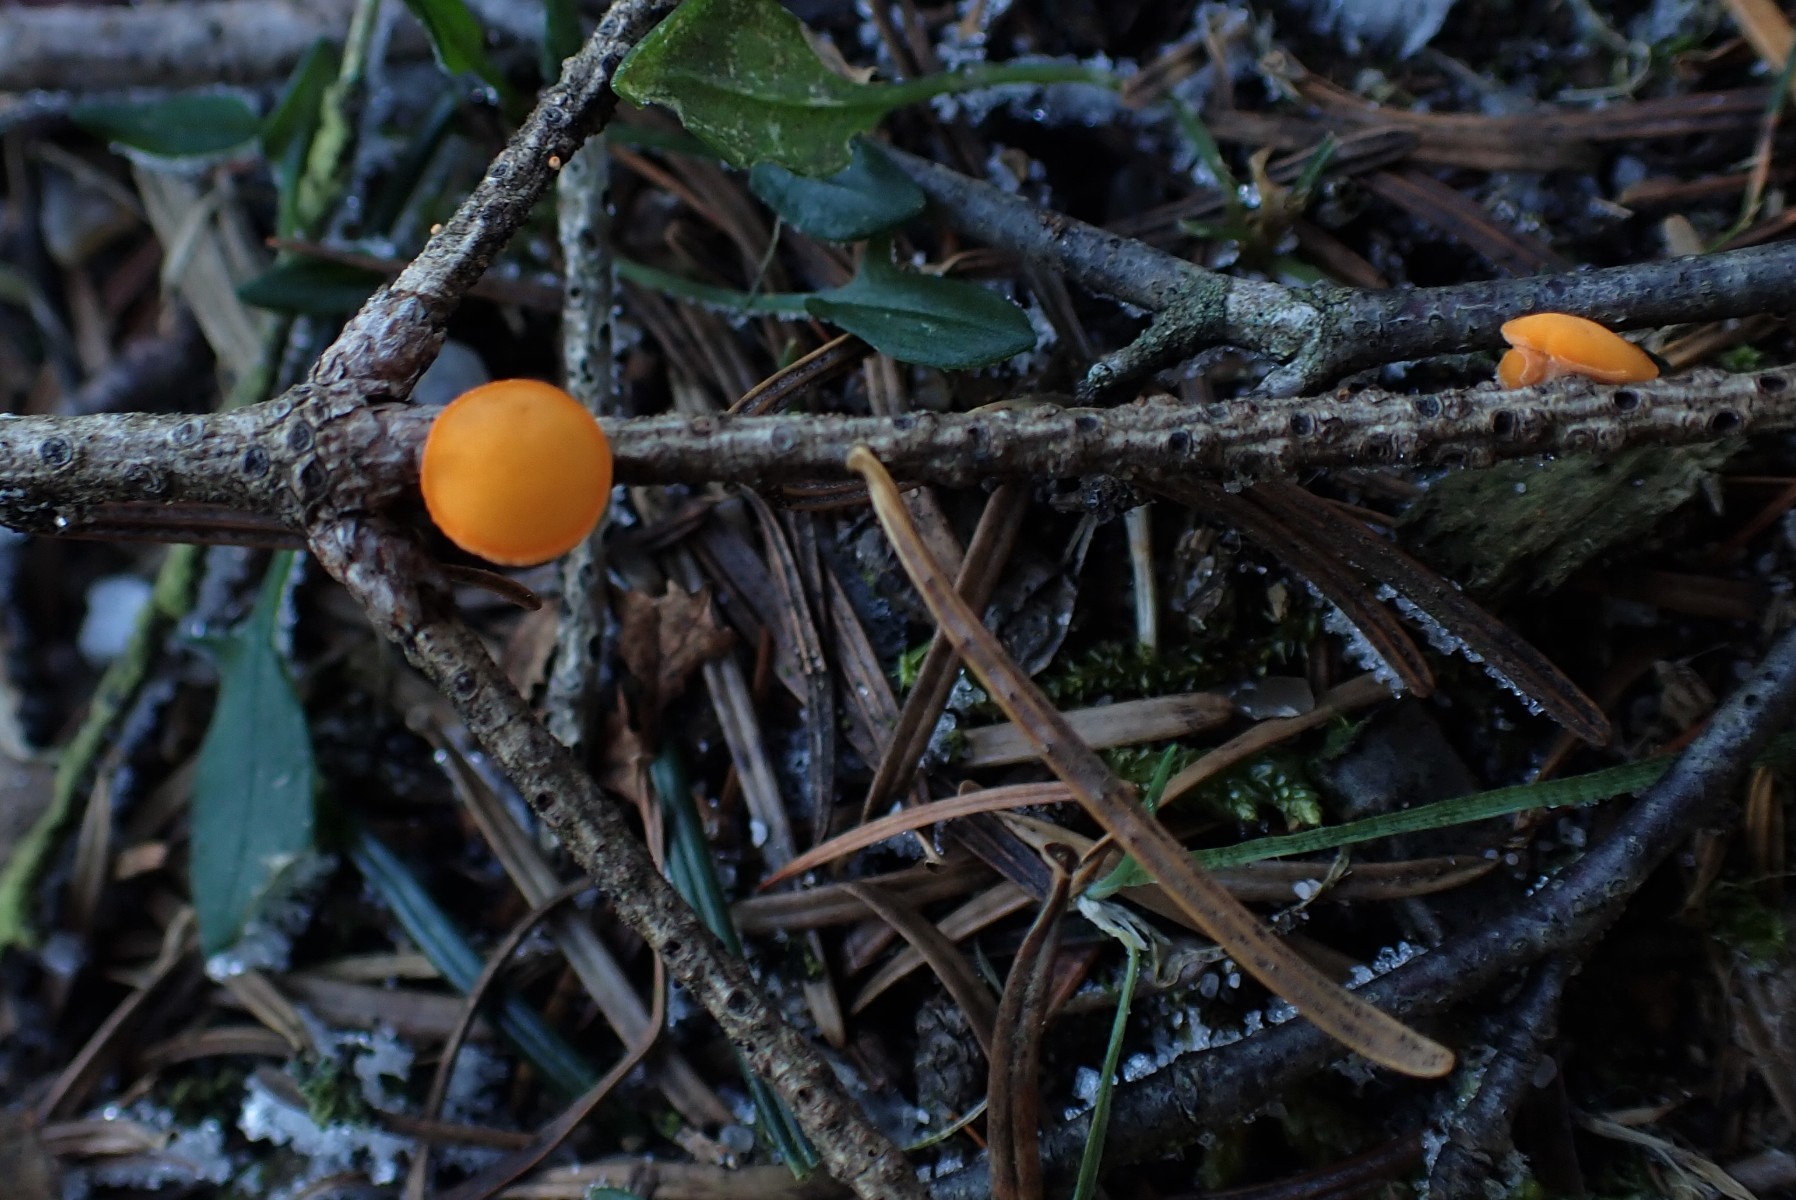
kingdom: Fungi
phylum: Ascomycota
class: Pezizomycetes
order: Pezizales
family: Sarcoscyphaceae
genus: Pithya
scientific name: Pithya vulgaris
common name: stor dukatbæger
